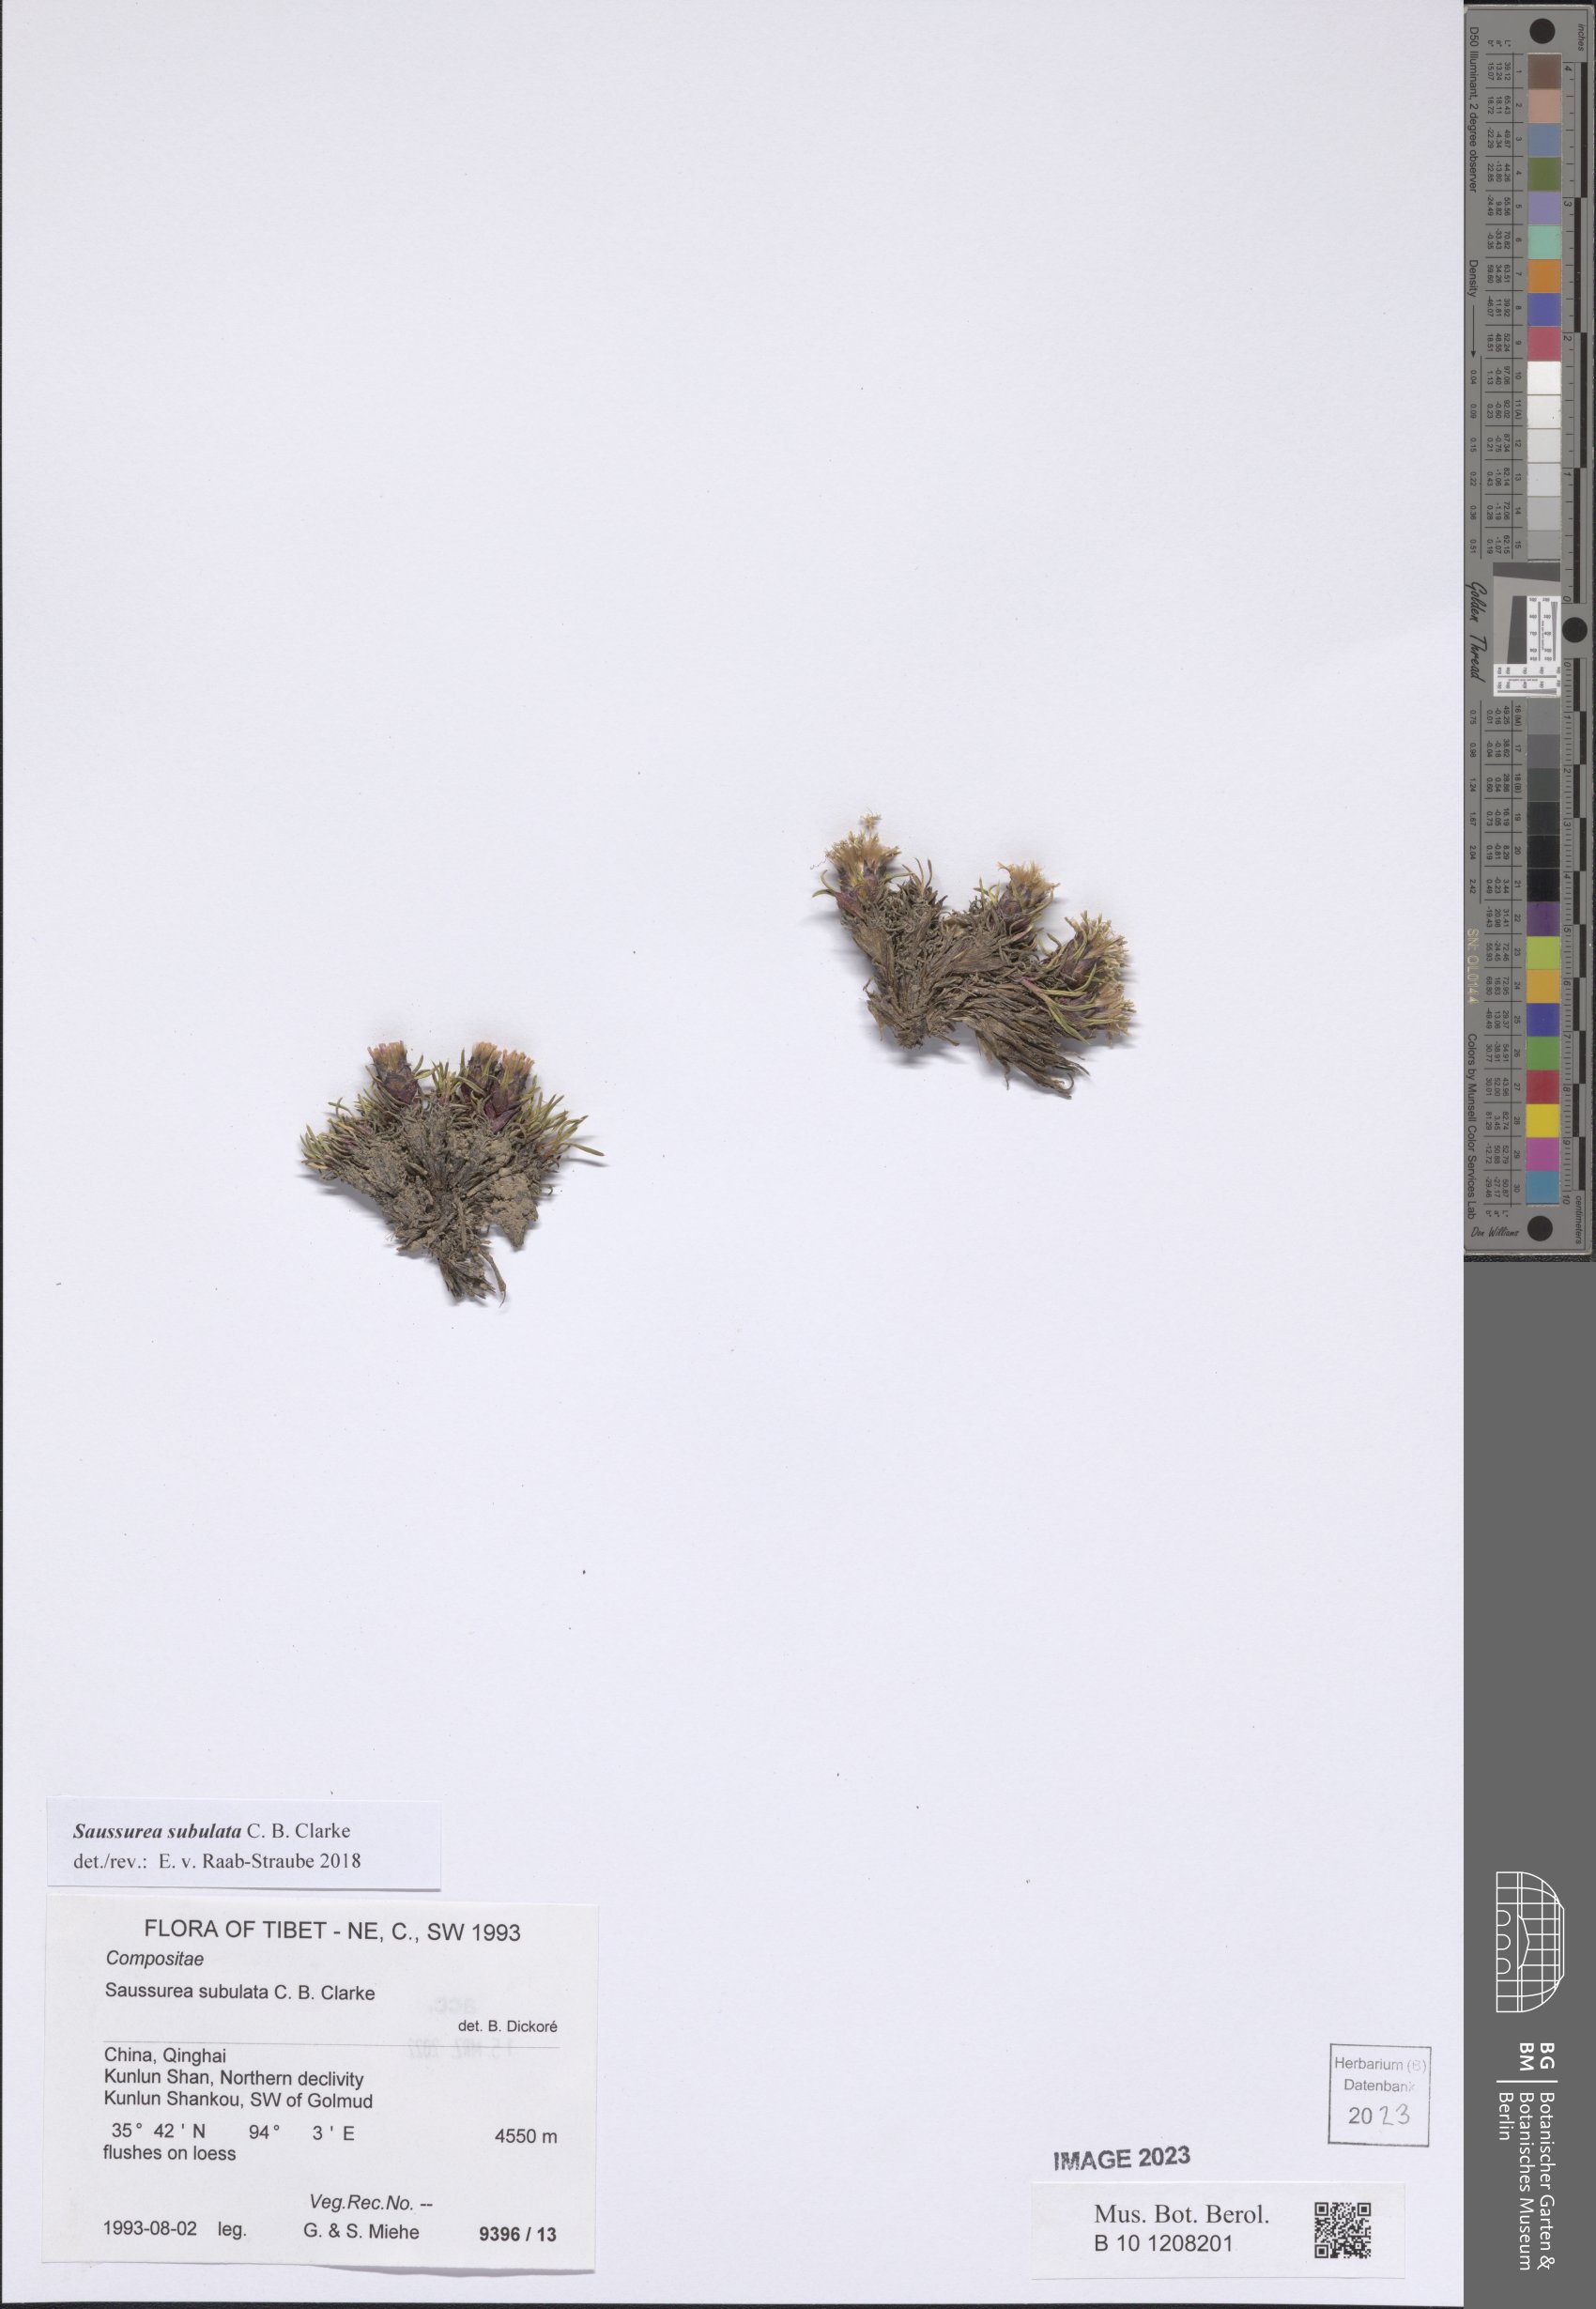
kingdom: Plantae
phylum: Tracheophyta
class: Magnoliopsida
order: Asterales
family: Asteraceae
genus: Saussurea
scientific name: Saussurea subulata
